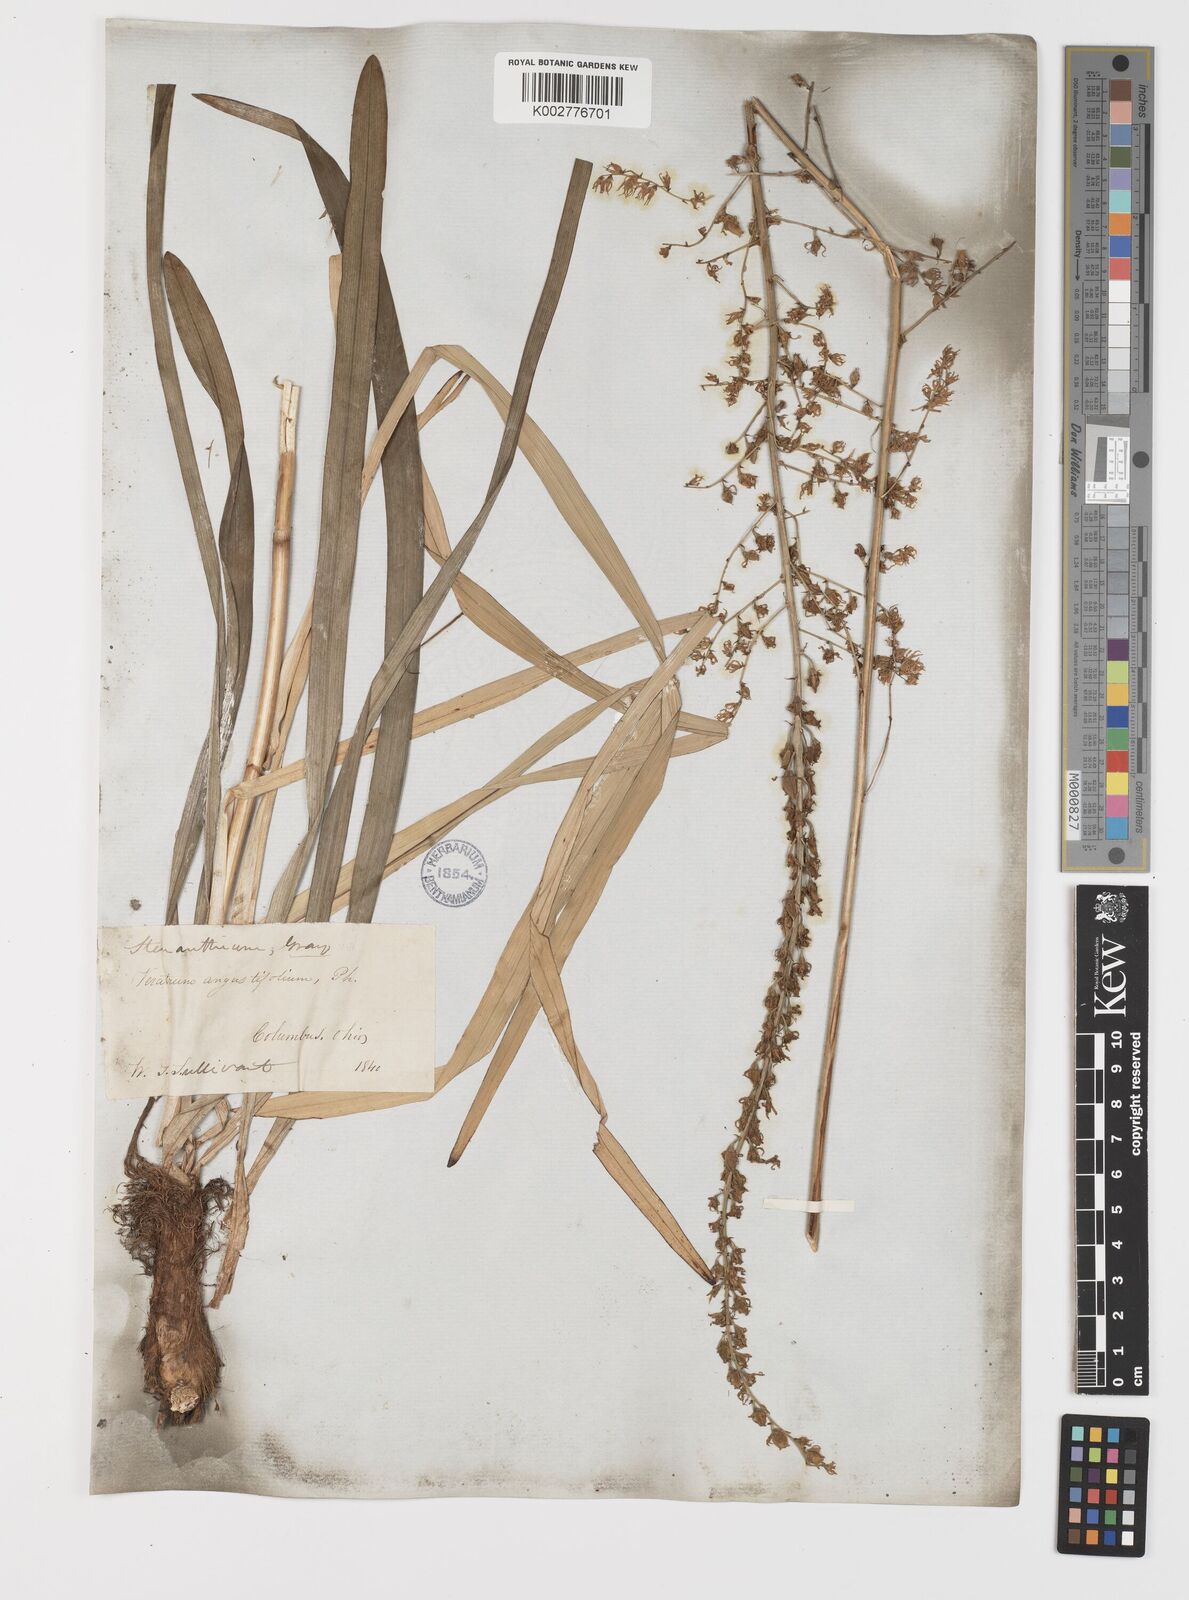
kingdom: Plantae
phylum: Tracheophyta
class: Liliopsida
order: Liliales
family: Melanthiaceae
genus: Stenanthium
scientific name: Stenanthium gramineum
